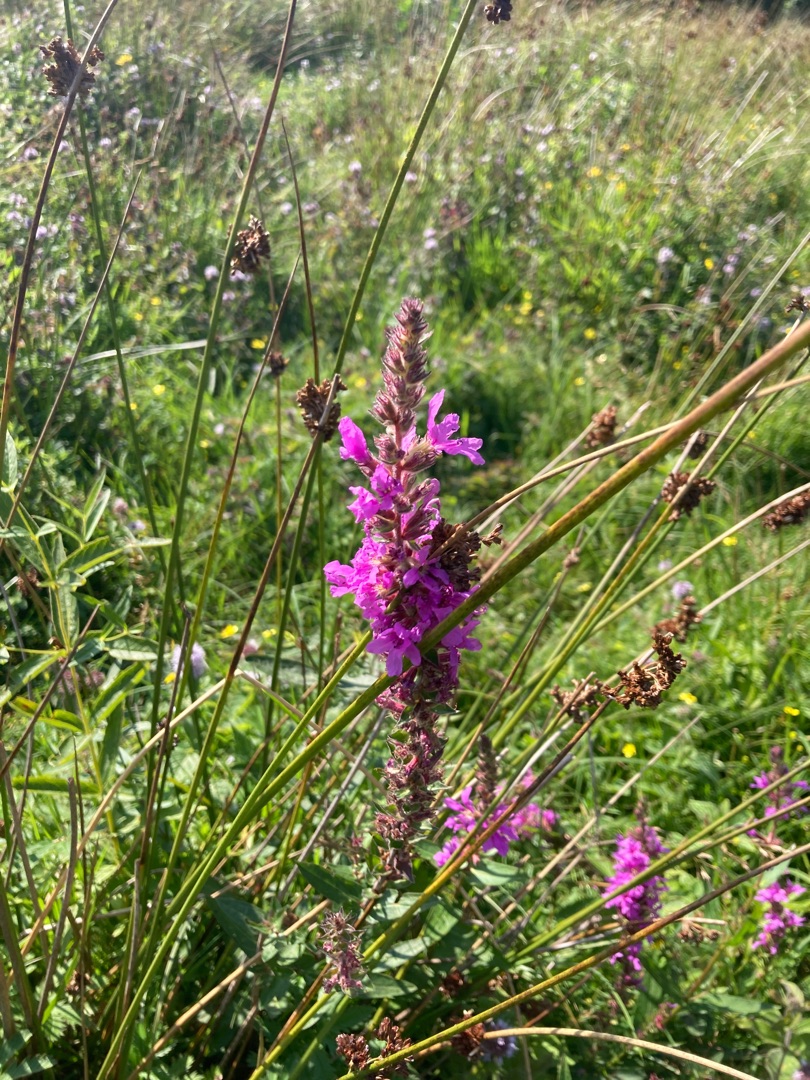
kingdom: Plantae
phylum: Tracheophyta
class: Magnoliopsida
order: Myrtales
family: Lythraceae
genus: Lythrum
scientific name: Lythrum salicaria
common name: Kattehale
